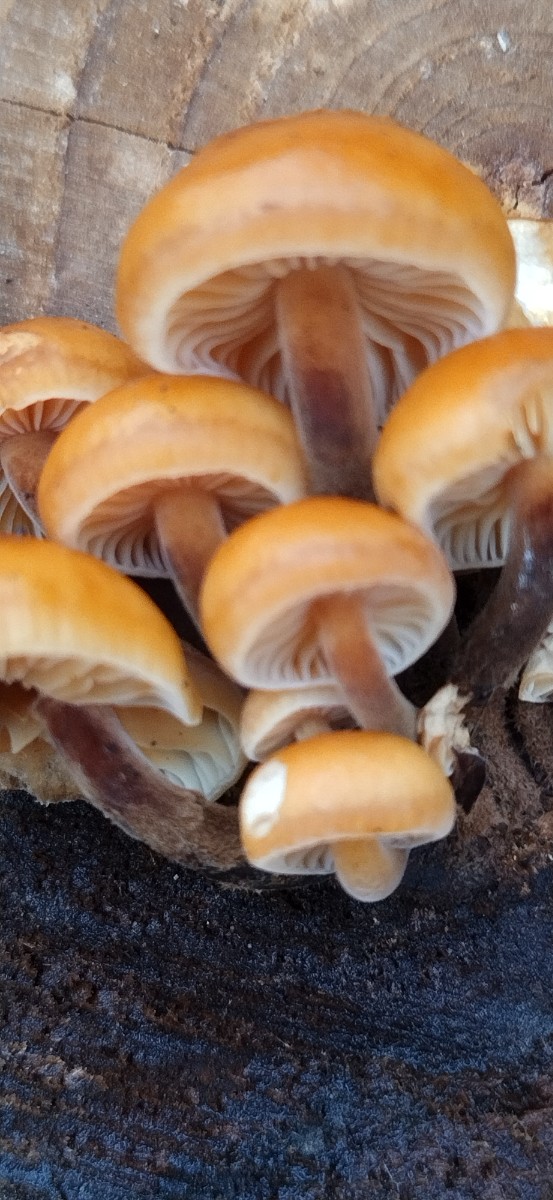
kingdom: Fungi
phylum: Basidiomycota
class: Agaricomycetes
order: Agaricales
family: Physalacriaceae
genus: Flammulina
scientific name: Flammulina velutipes
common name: gul fløjlsfod
